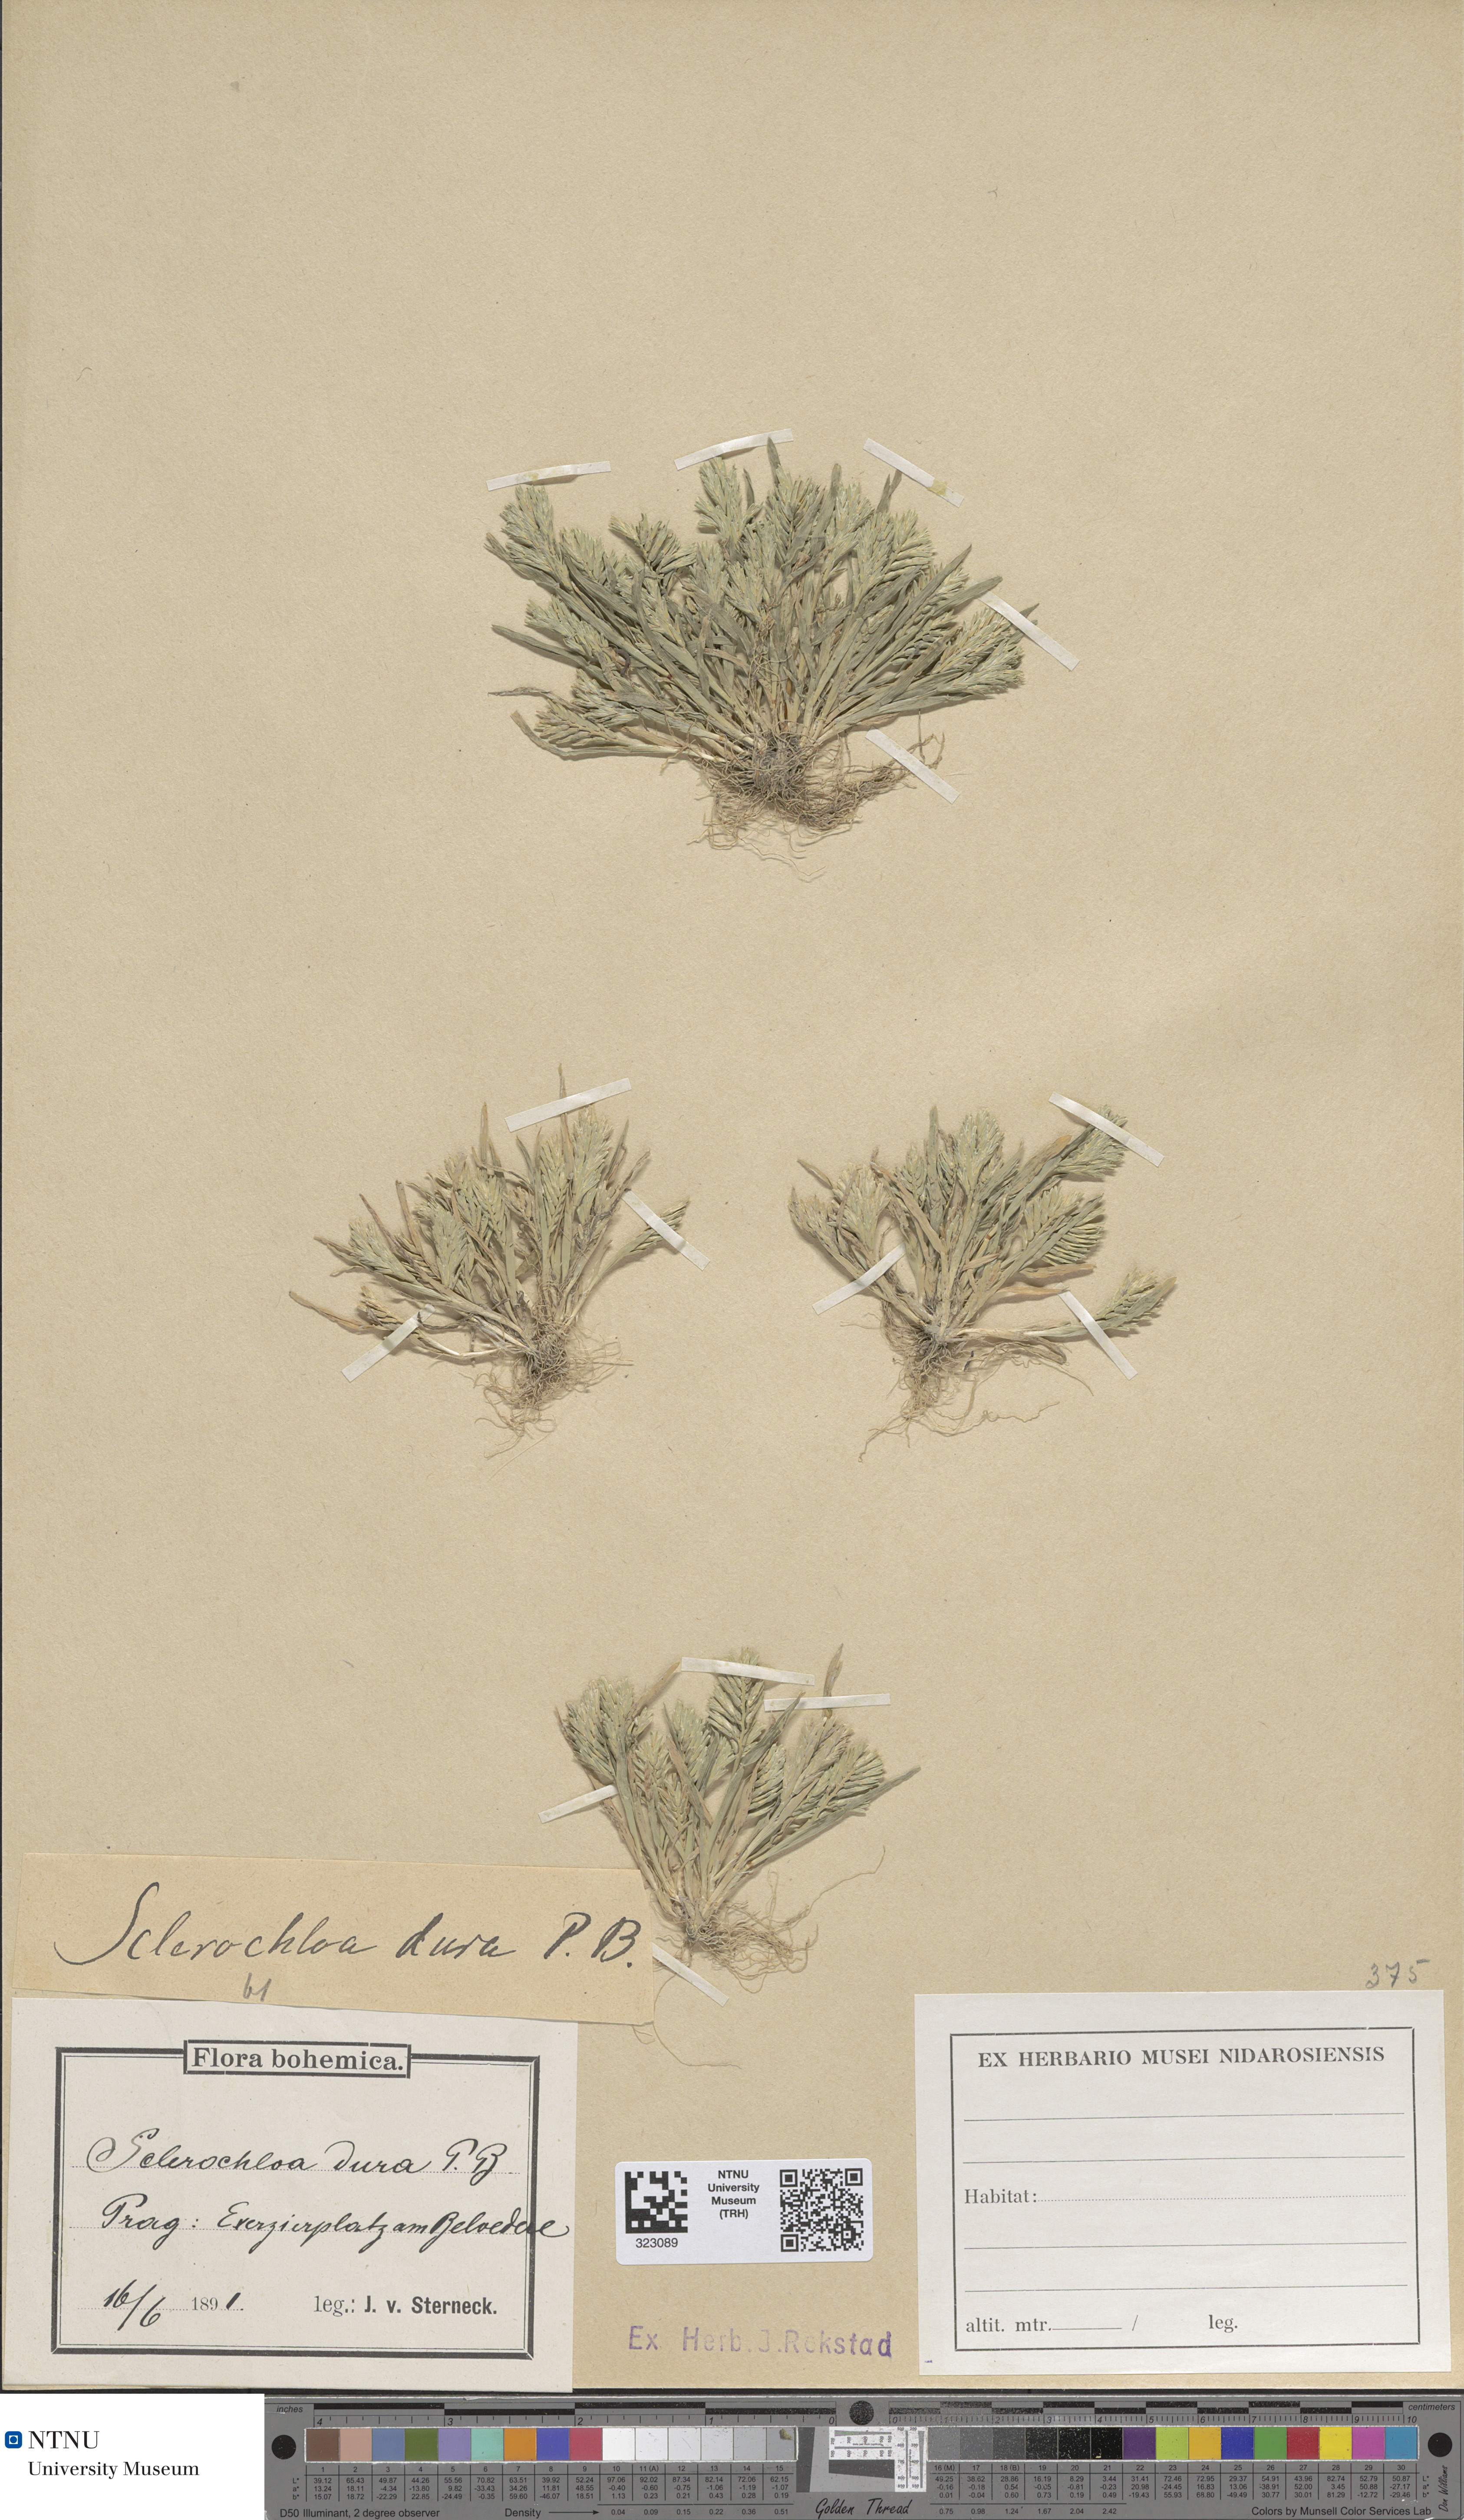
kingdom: Plantae
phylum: Tracheophyta
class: Liliopsida
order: Poales
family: Poaceae
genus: Sclerochloa
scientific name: Sclerochloa dura
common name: Common hardgrass
